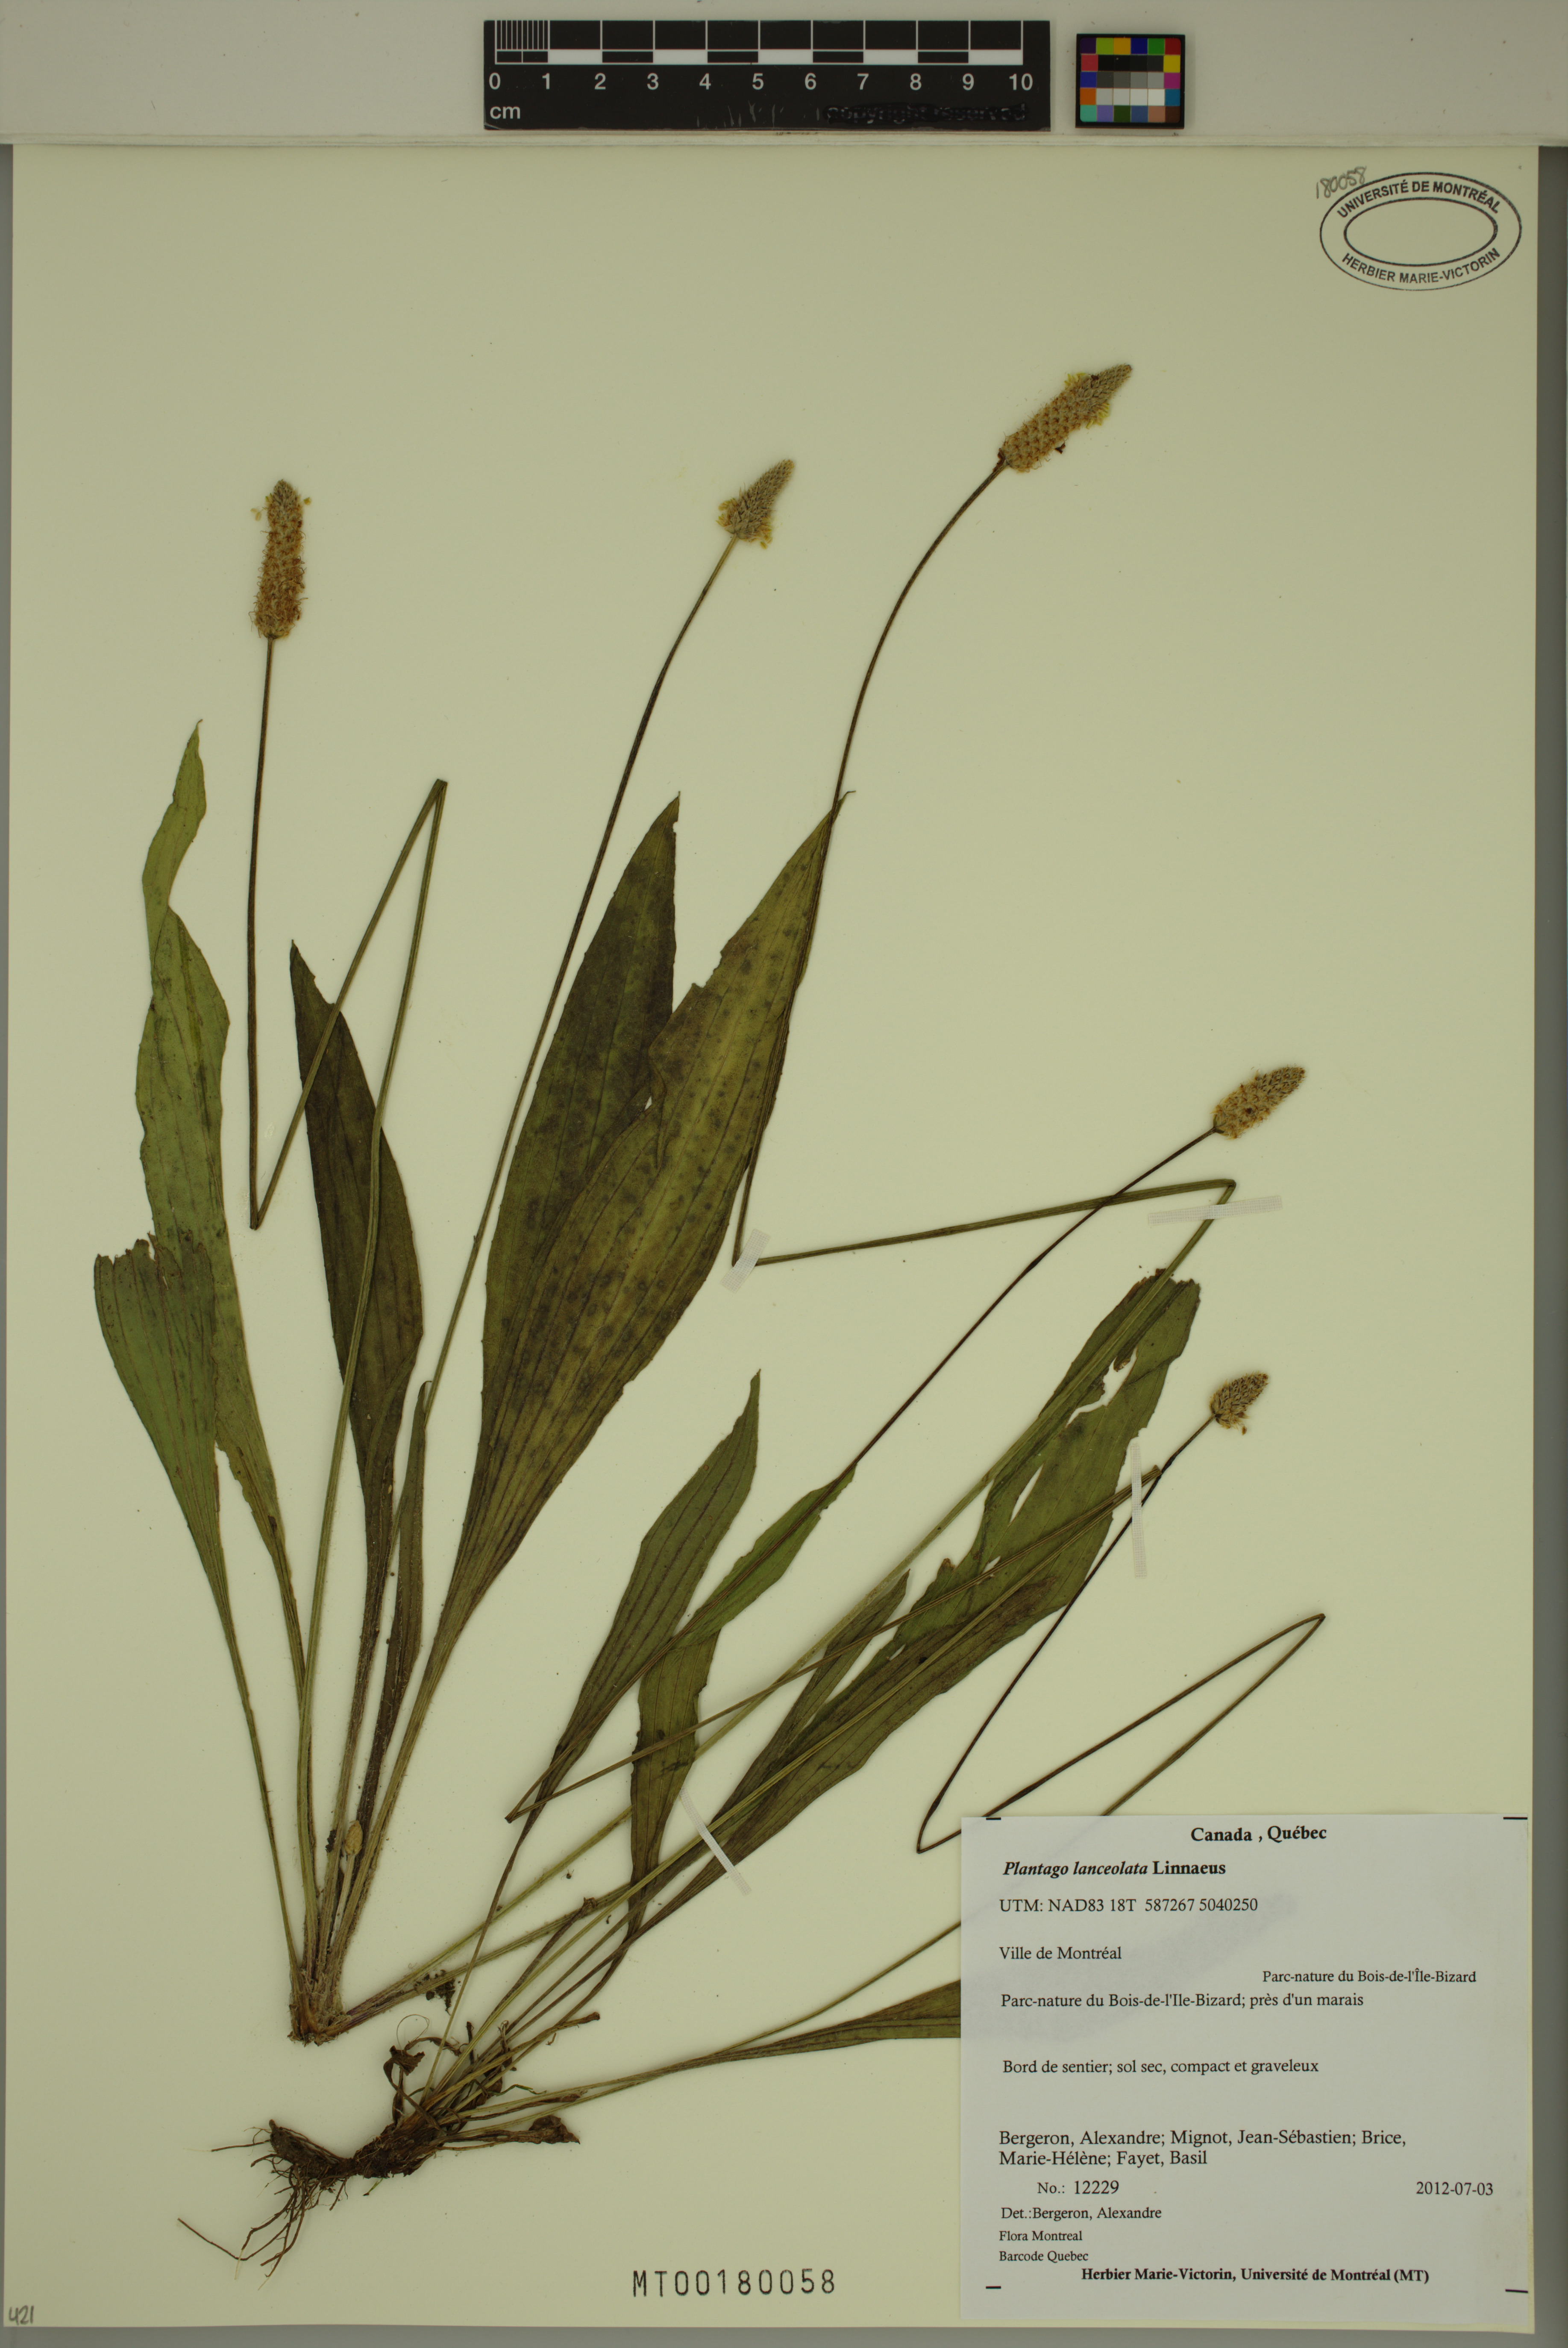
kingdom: Plantae
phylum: Tracheophyta
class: Magnoliopsida
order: Lamiales
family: Plantaginaceae
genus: Plantago
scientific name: Plantago lanceolata
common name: Ribwort plantain
